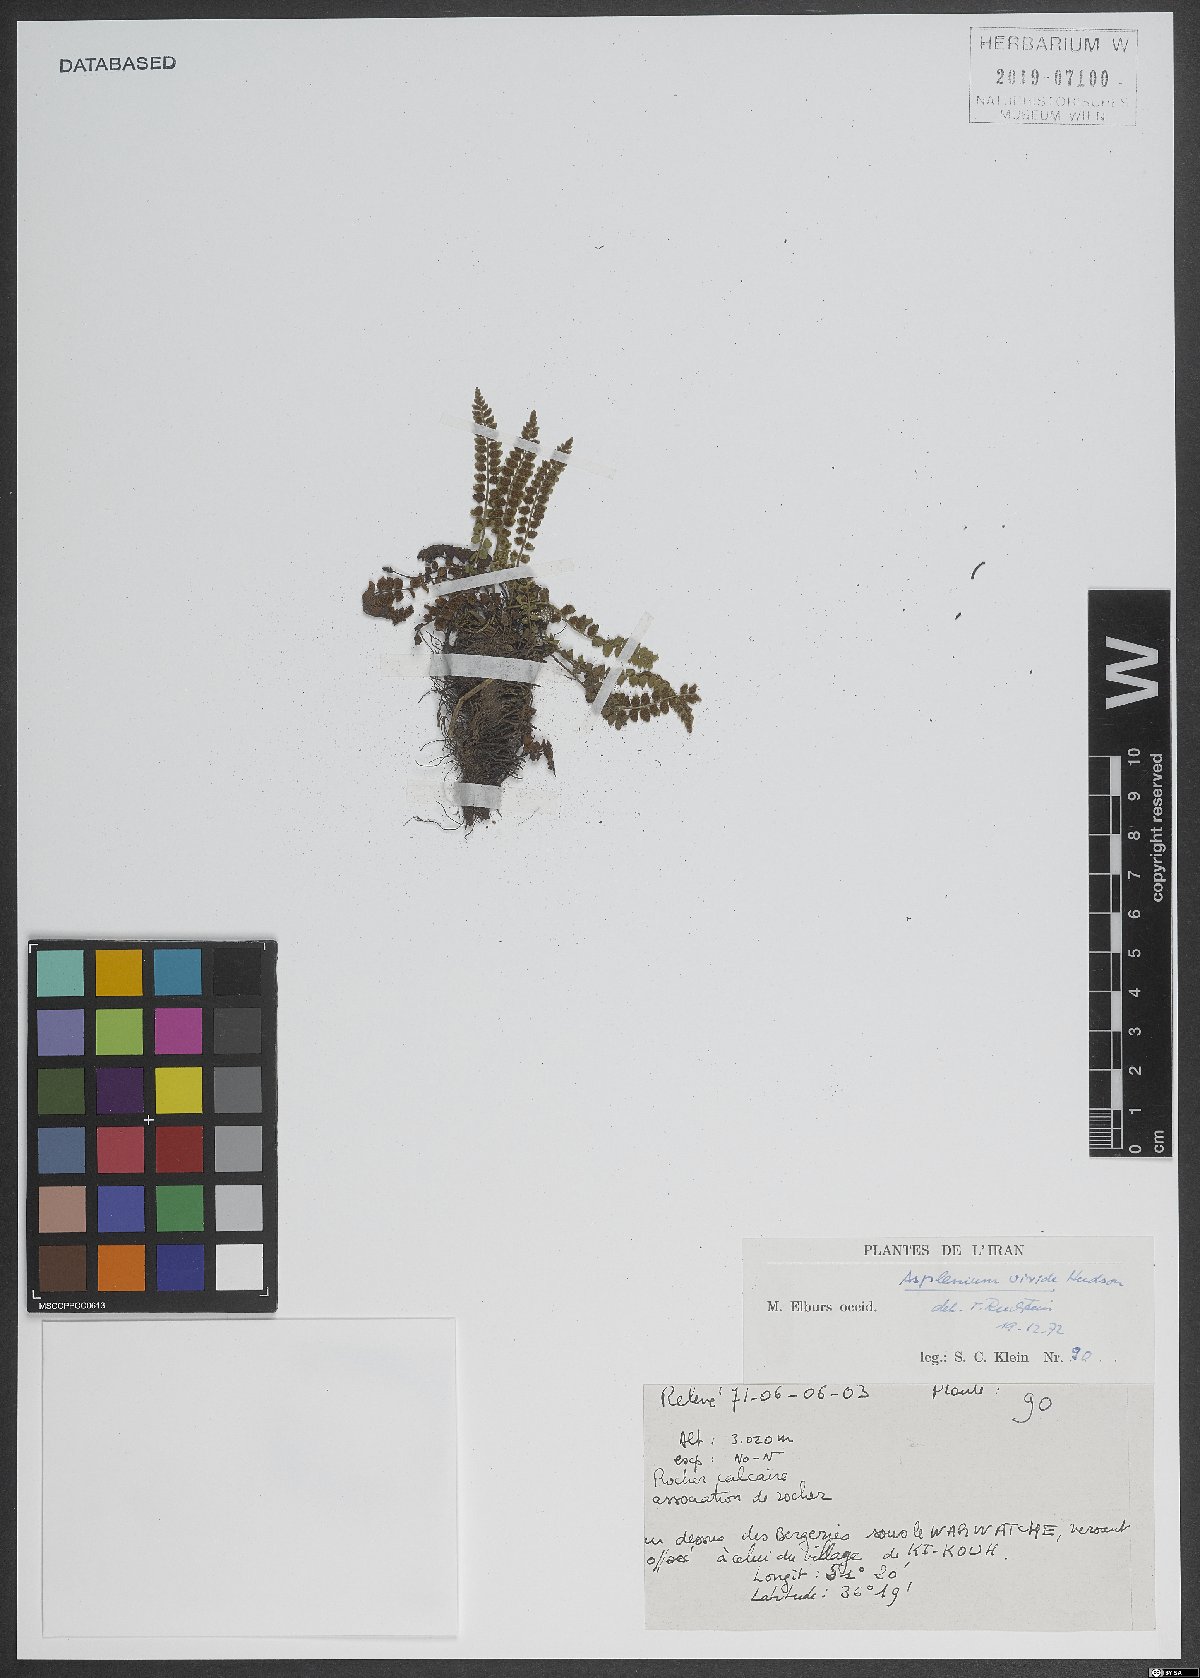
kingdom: Plantae
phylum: Tracheophyta
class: Polypodiopsida
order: Polypodiales
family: Aspleniaceae
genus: Asplenium
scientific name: Asplenium viride
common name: Green spleenwort
